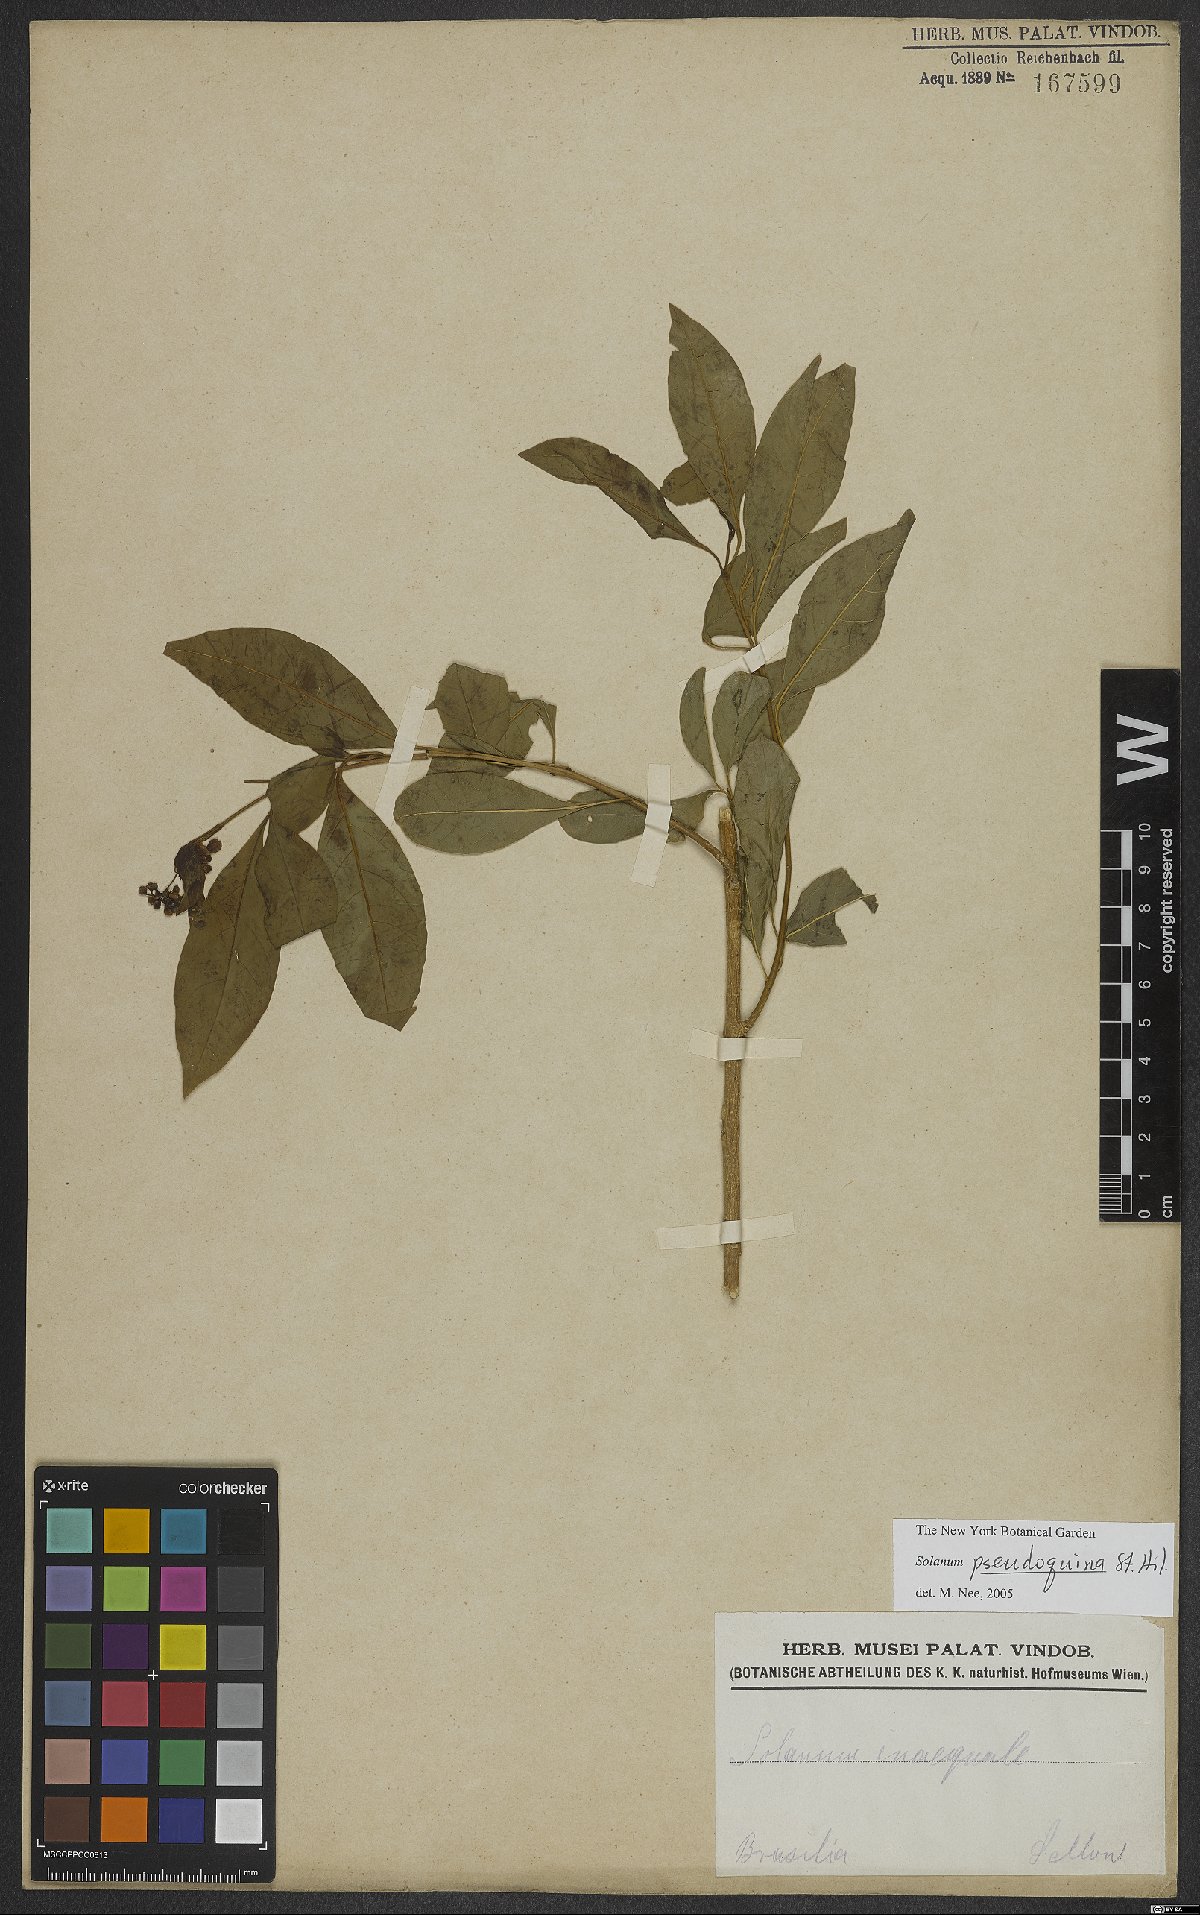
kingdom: Plantae
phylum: Tracheophyta
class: Magnoliopsida
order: Solanales
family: Solanaceae
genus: Solanum
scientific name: Solanum pseudoquina
